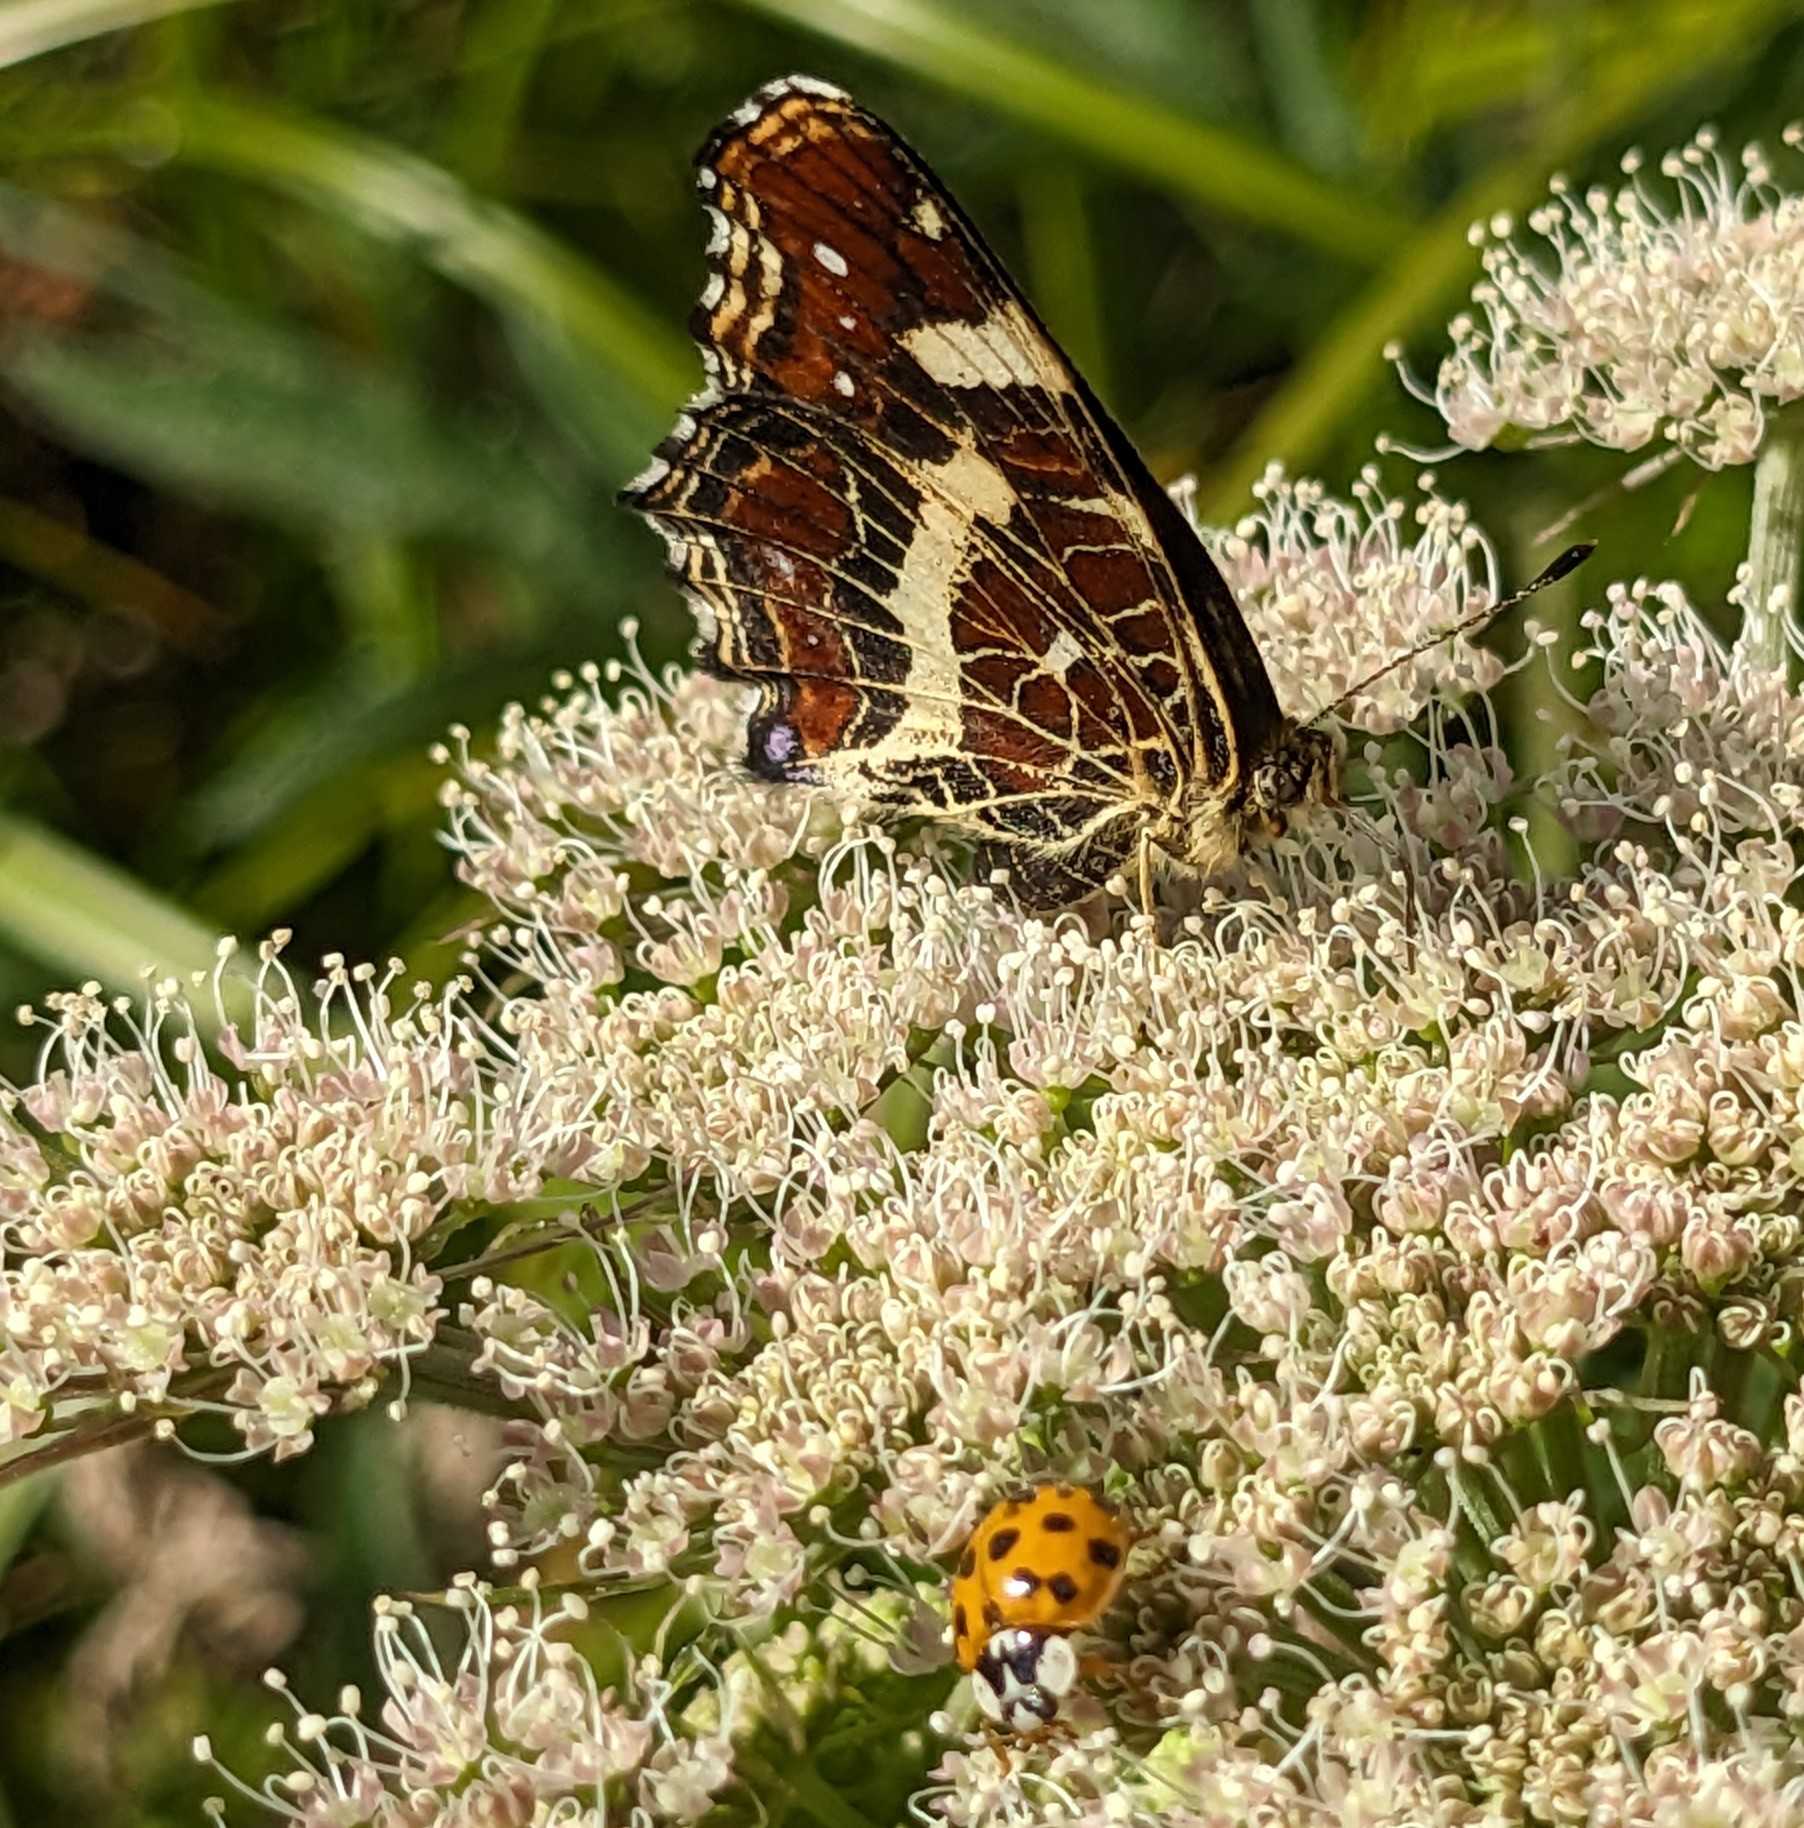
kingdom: Animalia
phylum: Arthropoda
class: Insecta
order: Lepidoptera
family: Nymphalidae
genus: Araschnia
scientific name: Araschnia levana
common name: Nældesommerfugl
